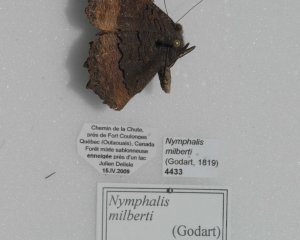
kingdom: Animalia
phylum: Arthropoda
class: Insecta
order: Lepidoptera
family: Nymphalidae
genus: Aglais
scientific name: Aglais milberti
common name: Milbert's Tortoiseshell
